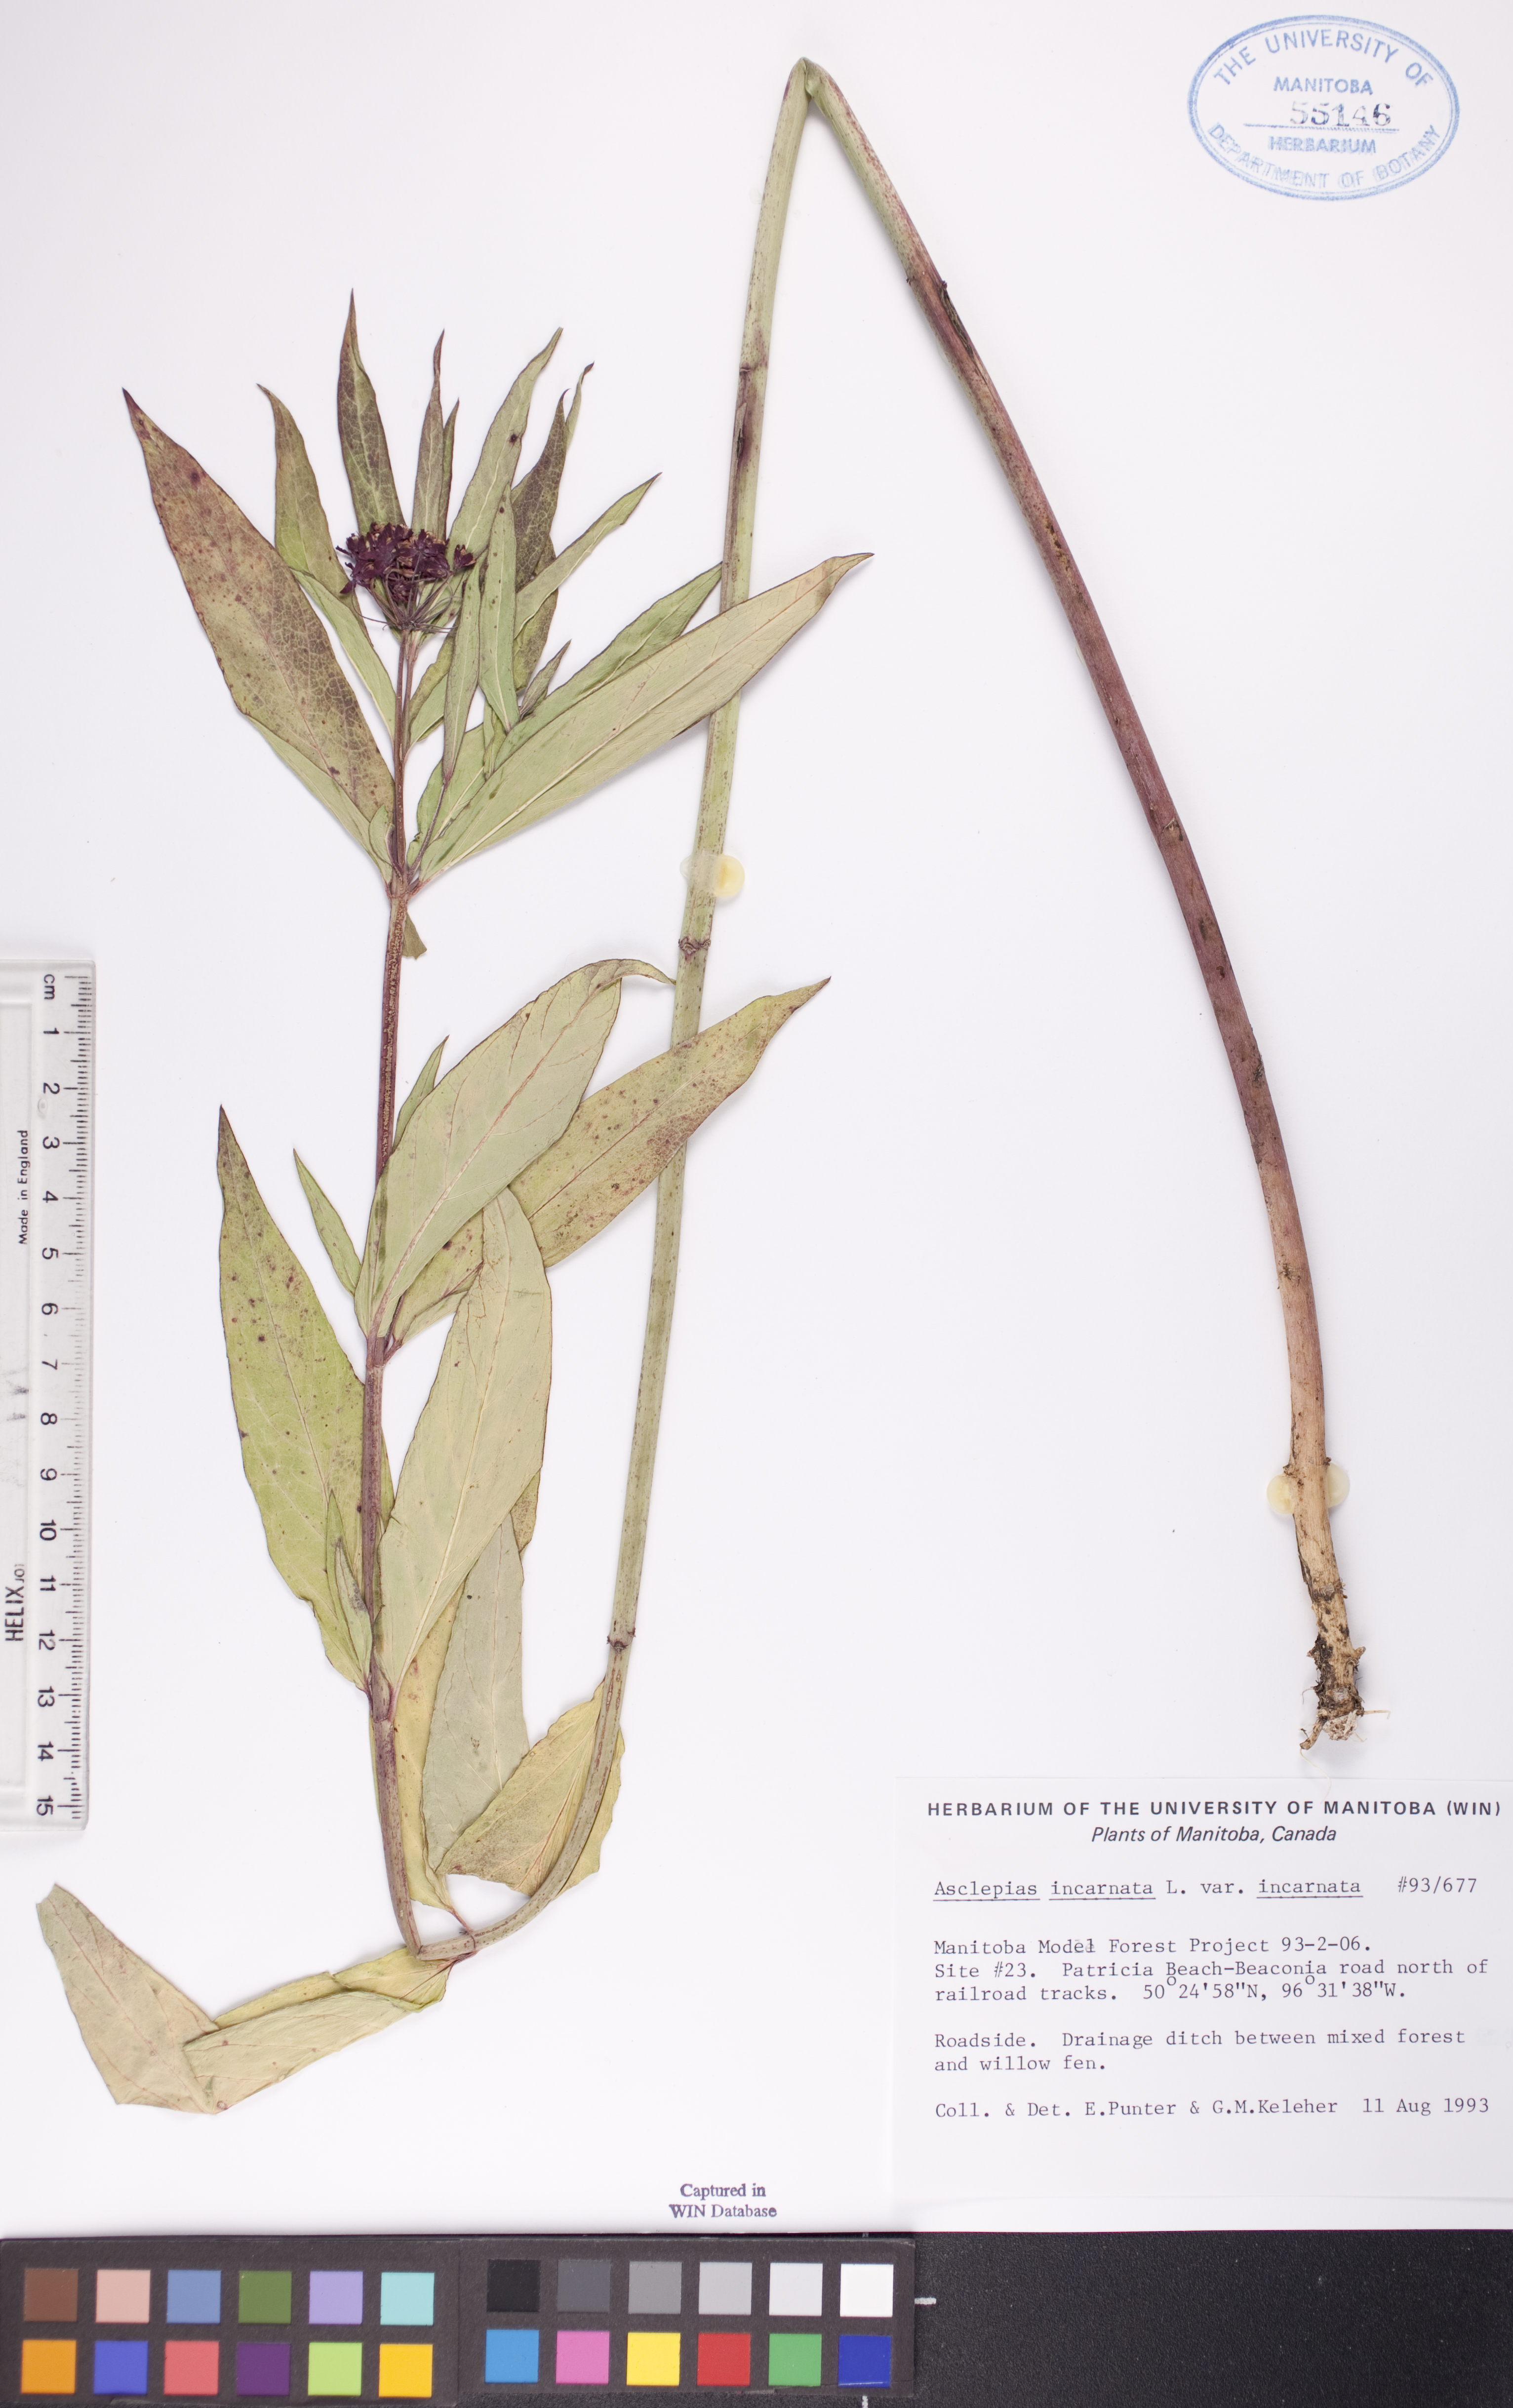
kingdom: Plantae
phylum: Tracheophyta
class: Magnoliopsida
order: Gentianales
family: Apocynaceae
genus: Asclepias
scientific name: Asclepias incarnata
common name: Swamp milkweed
